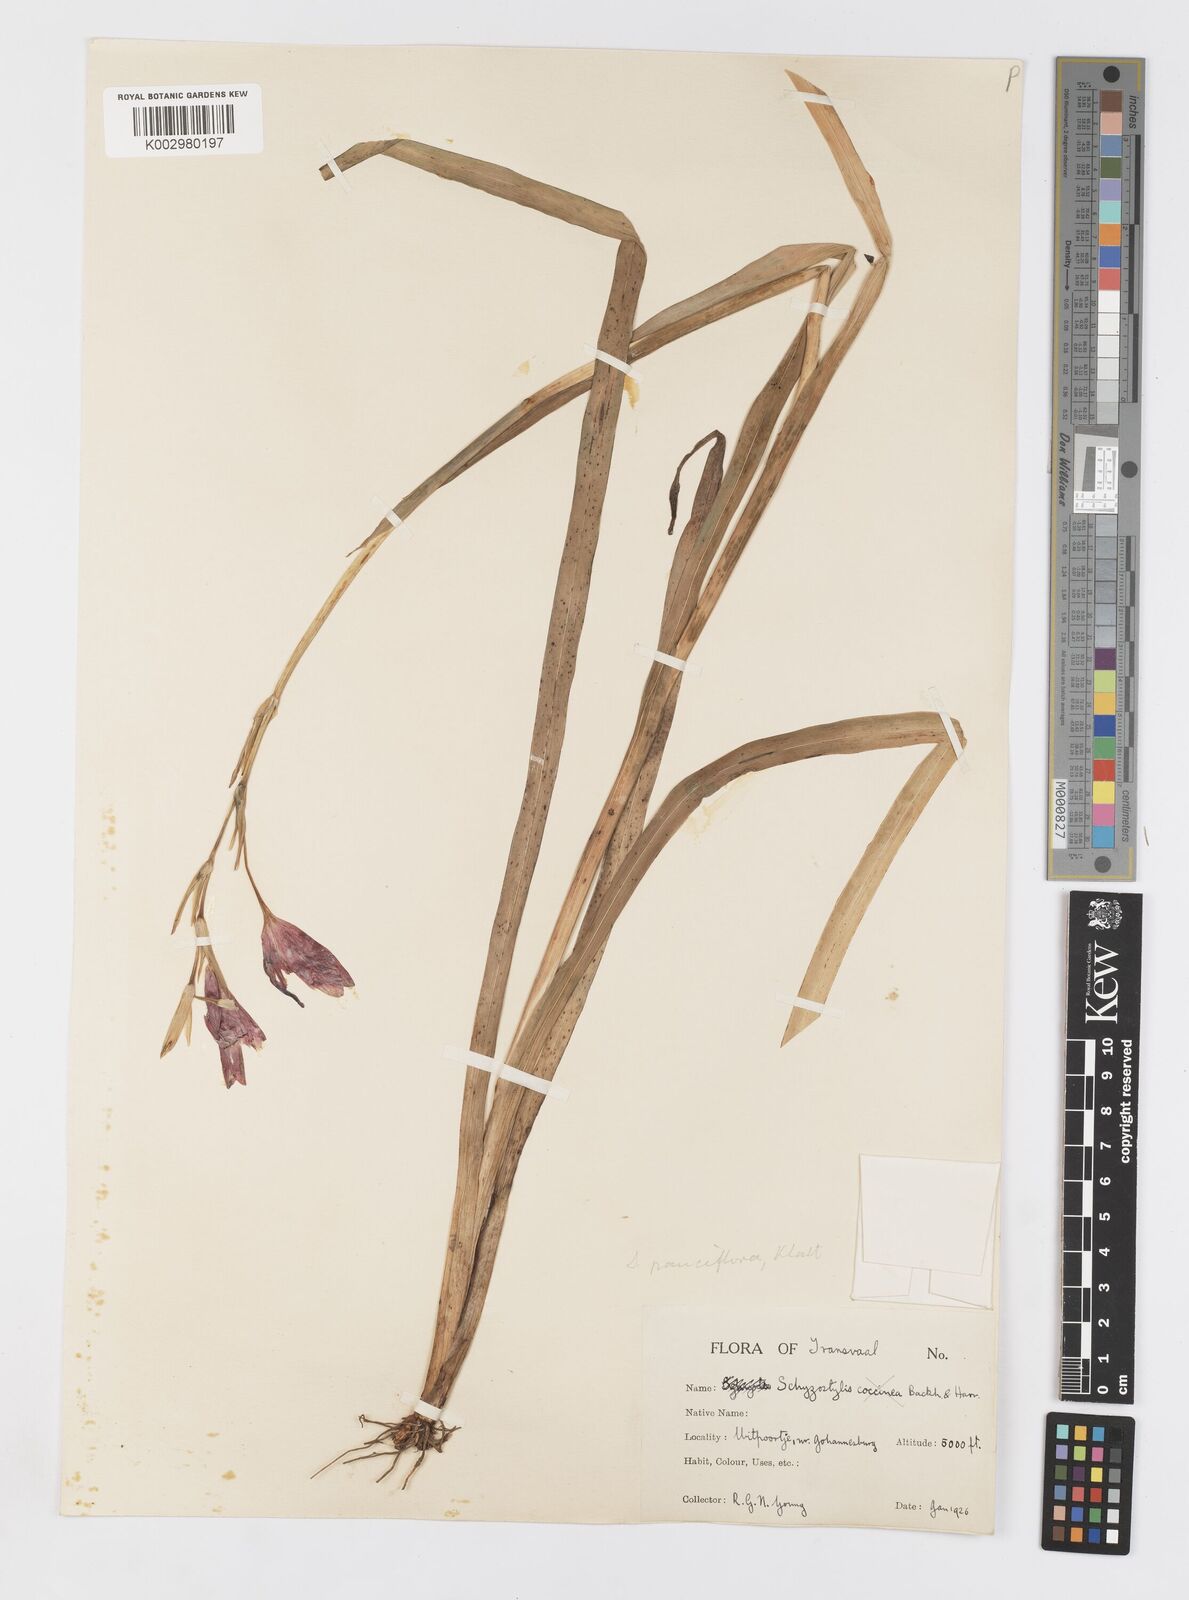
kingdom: Plantae
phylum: Tracheophyta
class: Liliopsida
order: Asparagales
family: Iridaceae
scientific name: Iridaceae
